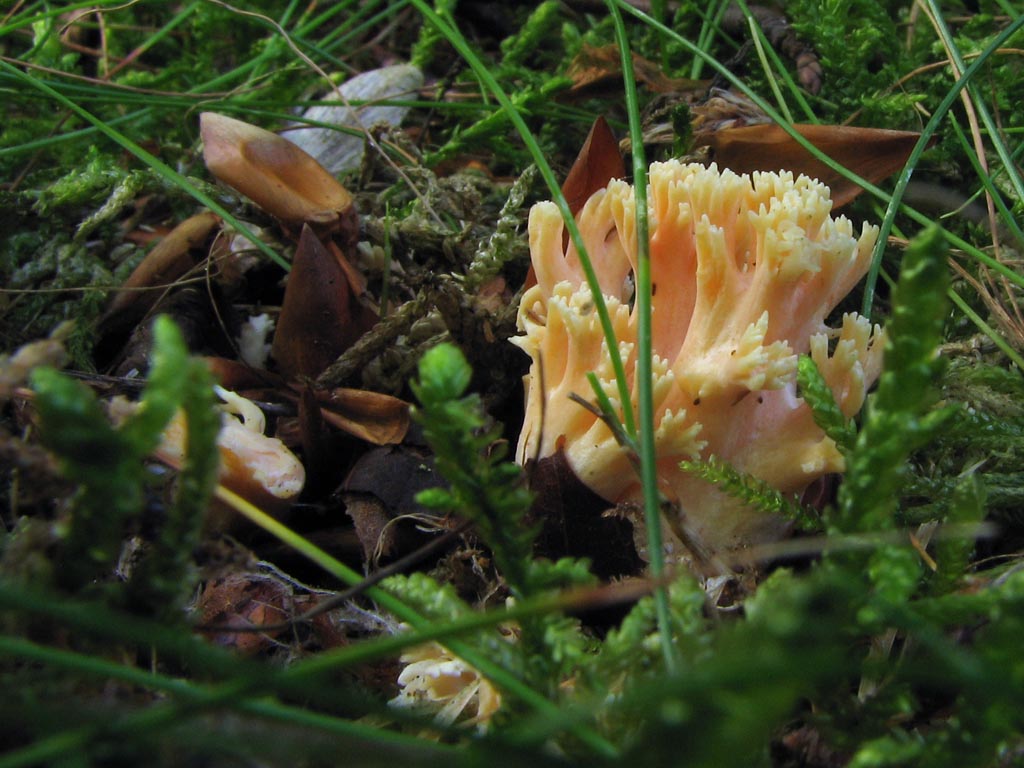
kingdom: Fungi
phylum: Basidiomycota
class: Agaricomycetes
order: Gomphales
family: Gomphaceae
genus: Ramaria
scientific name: Ramaria fagetorum
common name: abrikos-koralsvamp
